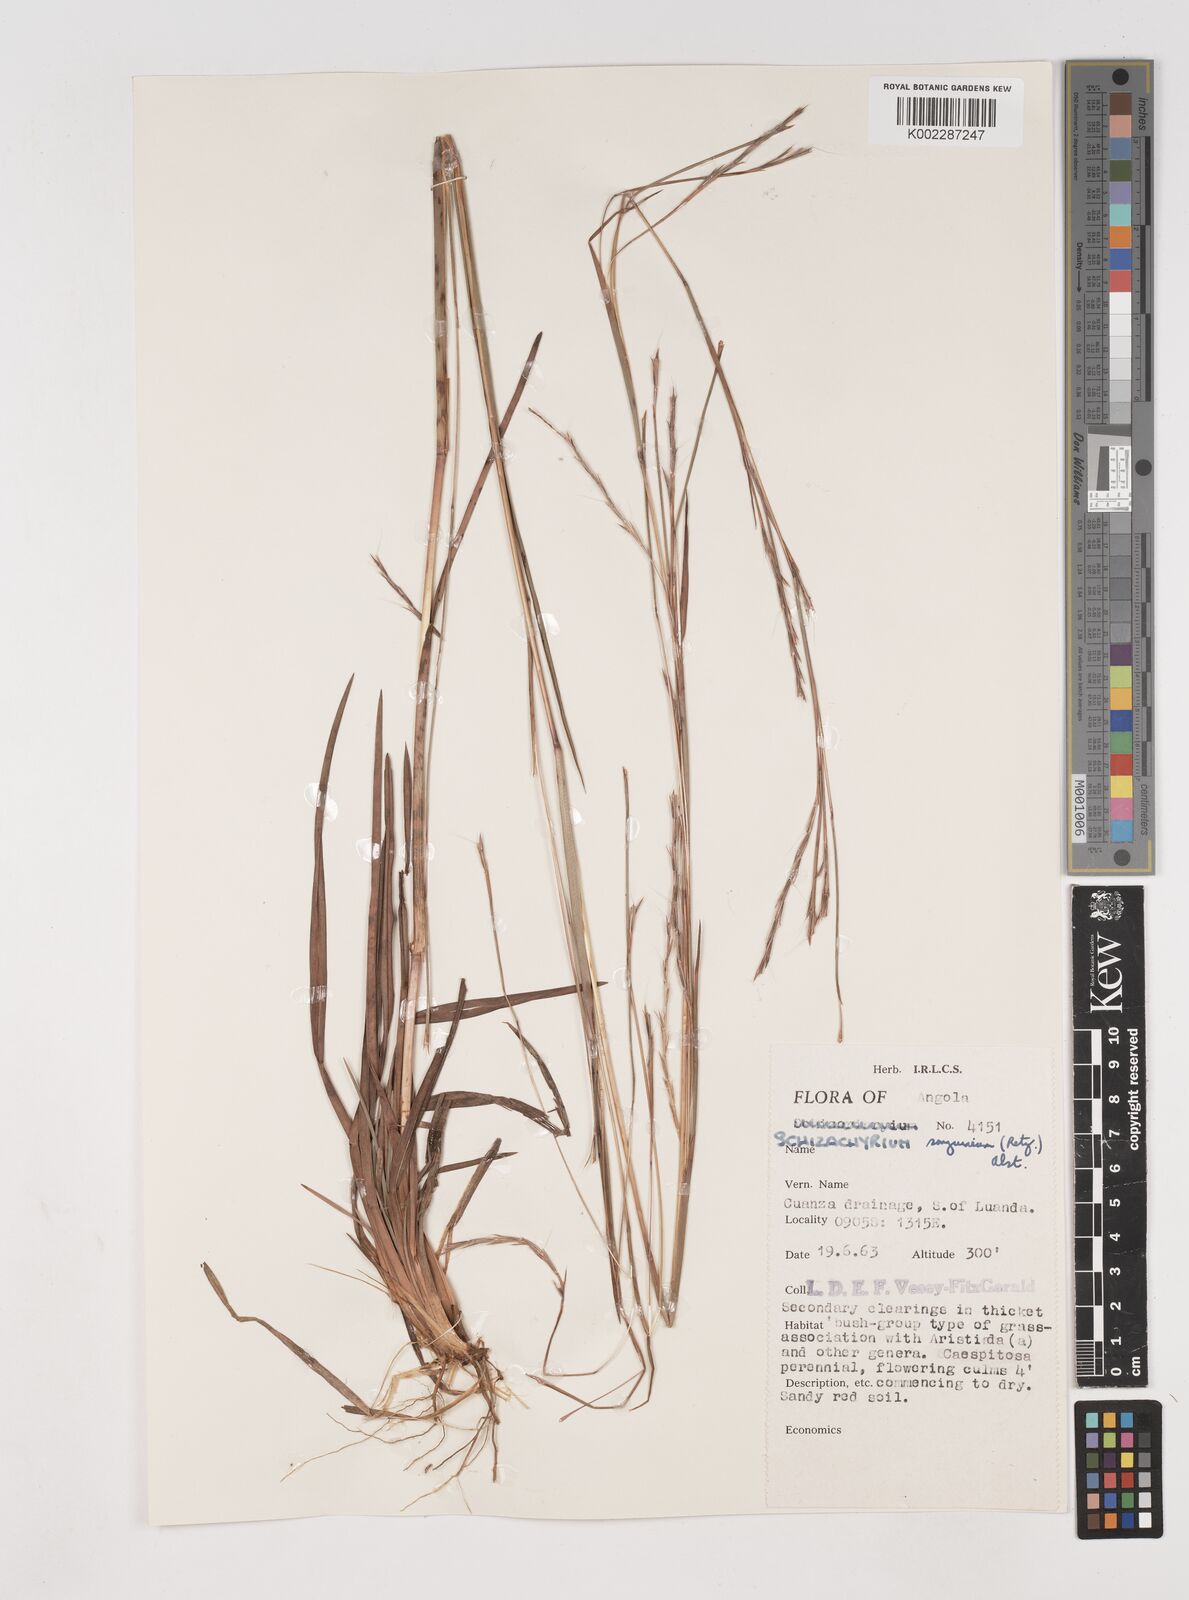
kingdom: Plantae
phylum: Tracheophyta
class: Liliopsida
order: Poales
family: Poaceae
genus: Schizachyrium
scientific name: Schizachyrium sanguineum
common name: Crimson bluestem
